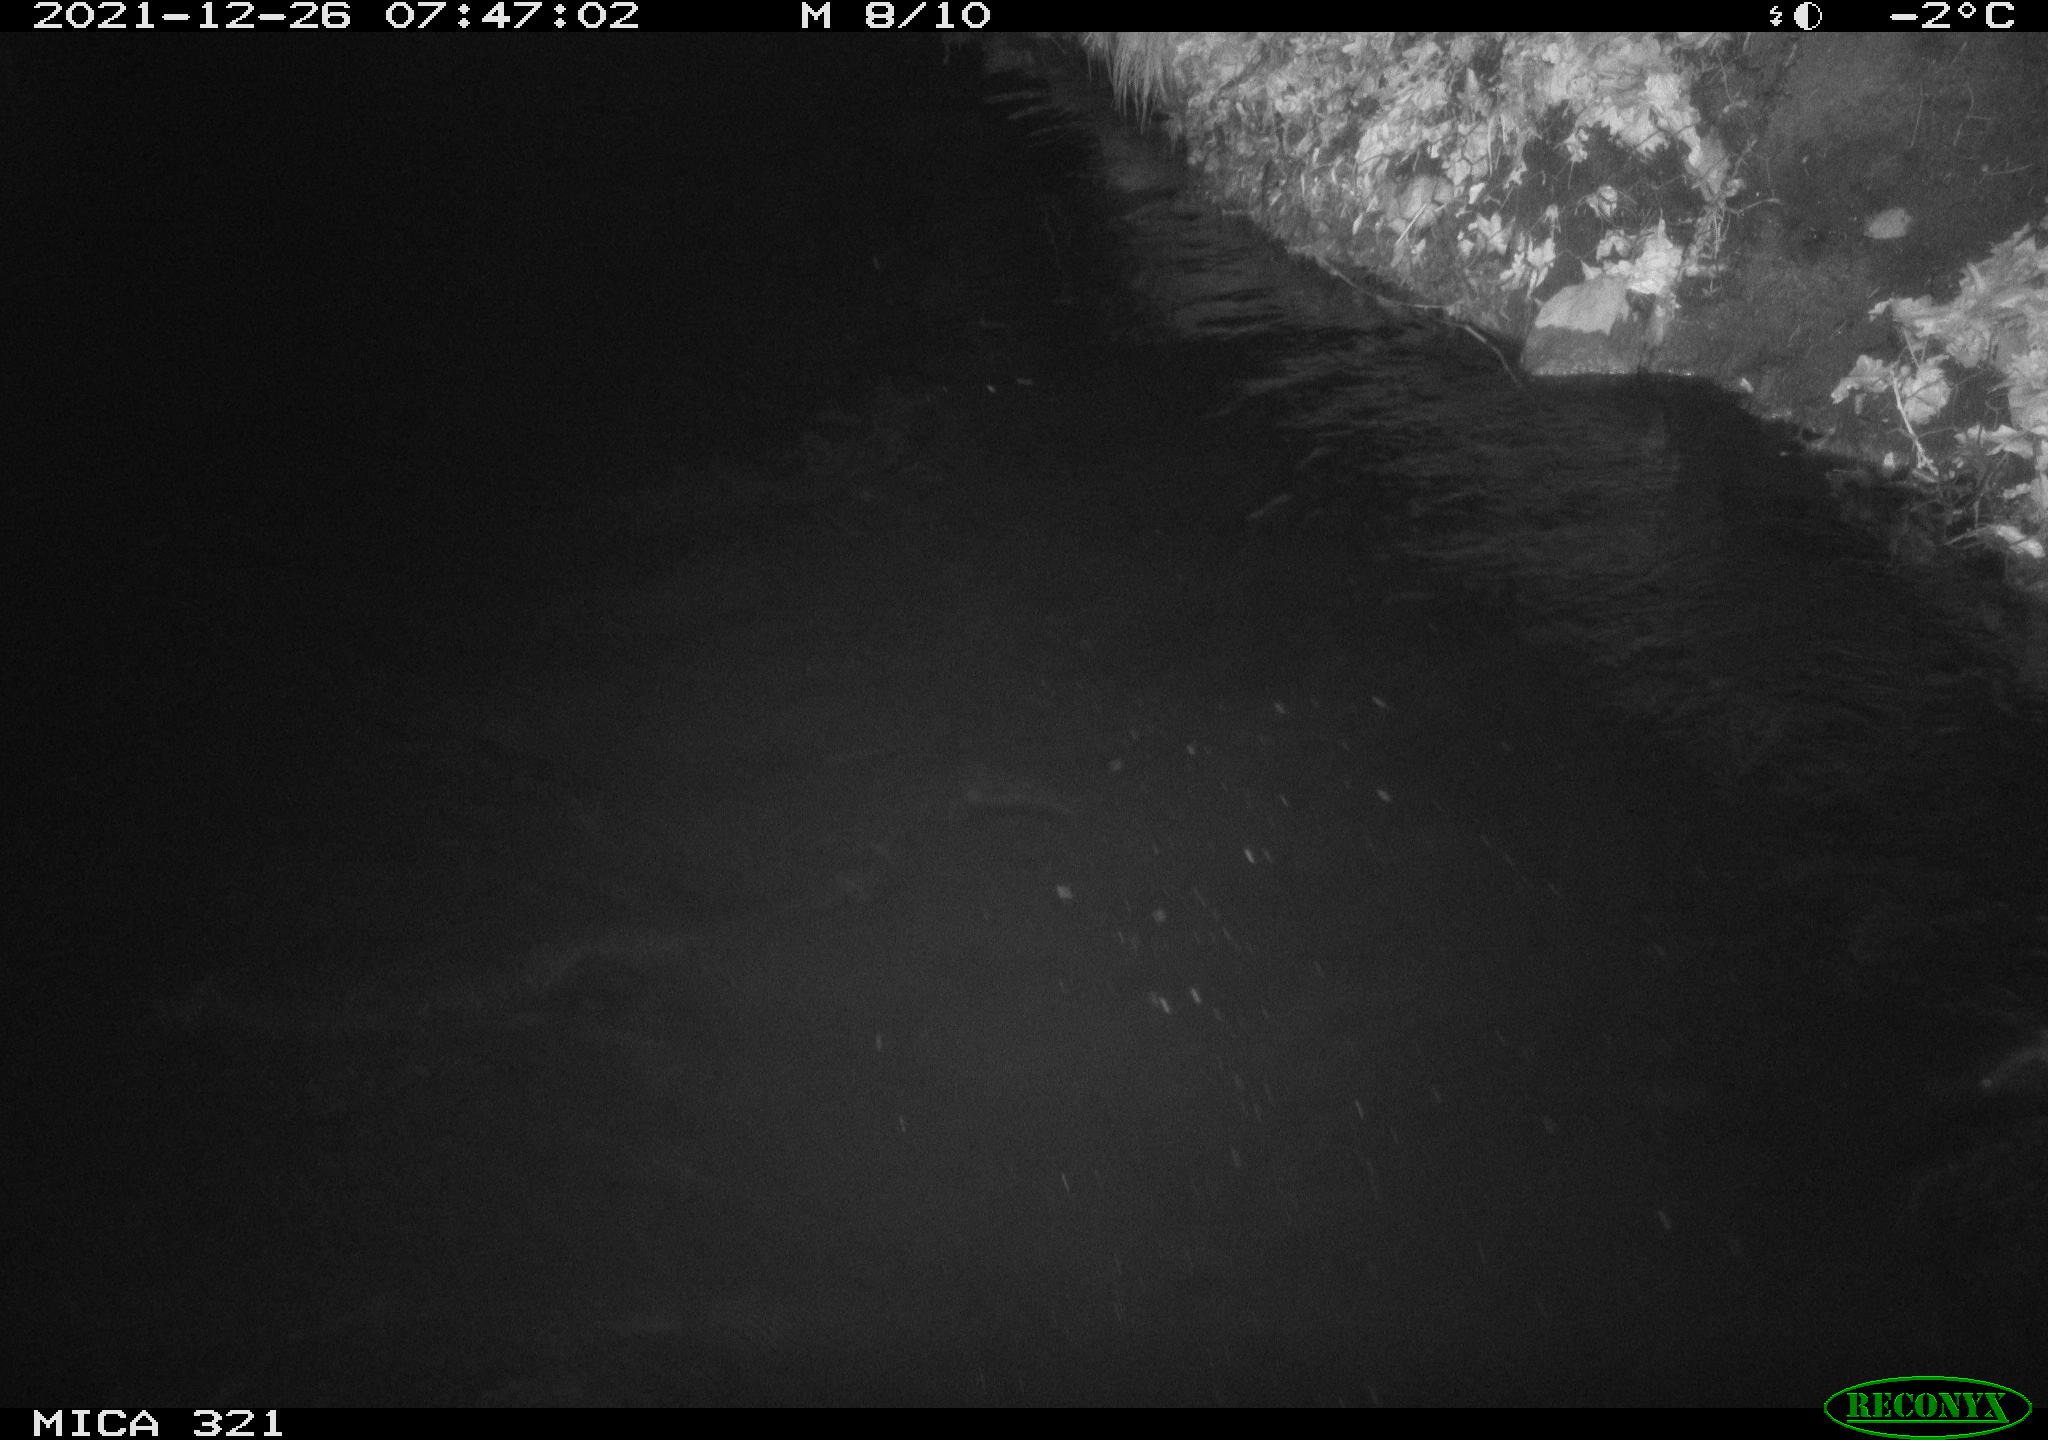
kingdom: Animalia
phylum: Chordata
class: Aves
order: Anseriformes
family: Anatidae
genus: Anas
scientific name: Anas
